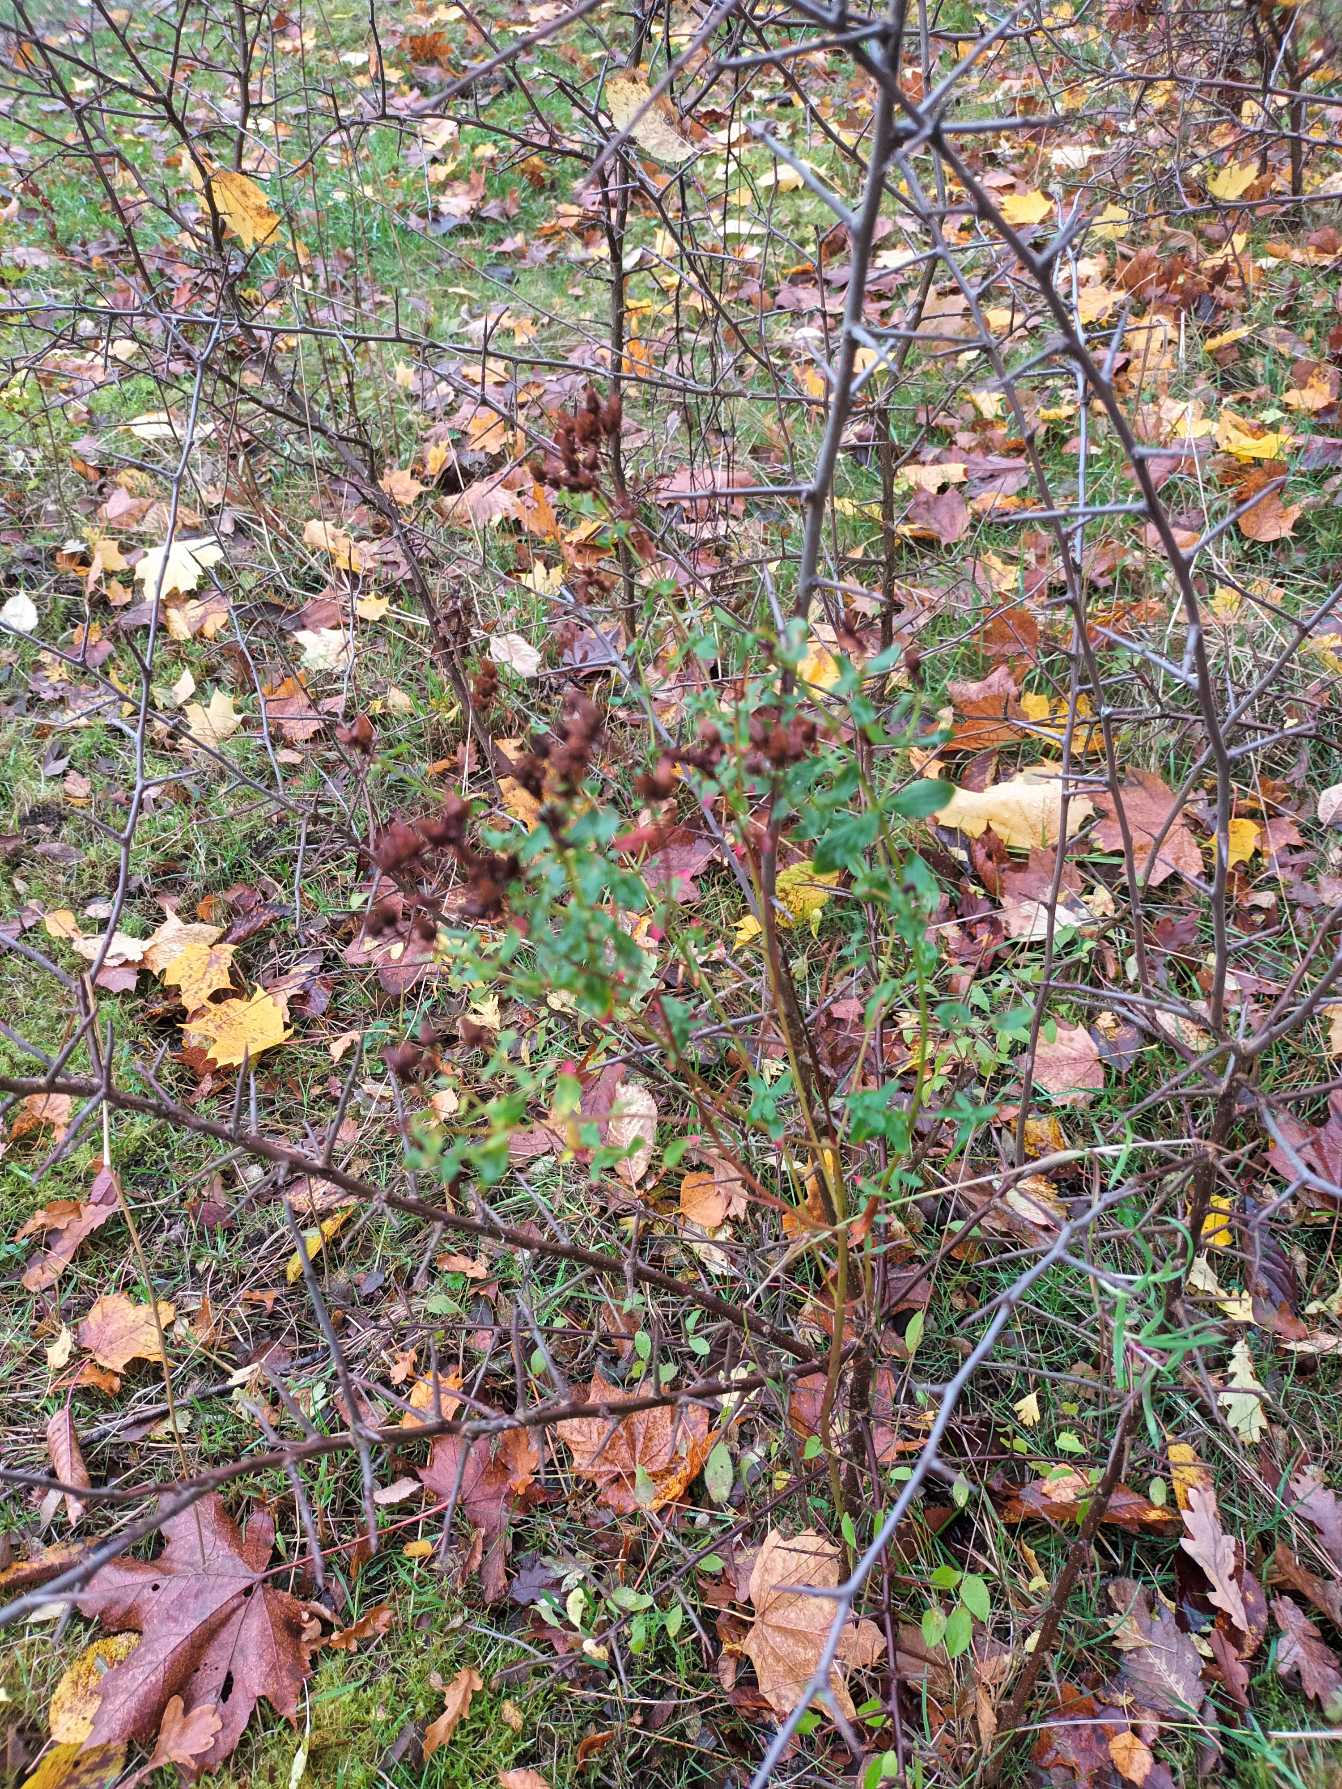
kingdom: Plantae
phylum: Tracheophyta
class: Magnoliopsida
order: Malpighiales
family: Hypericaceae
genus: Hypericum
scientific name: Hypericum perforatum
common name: Prikbladet perikon
